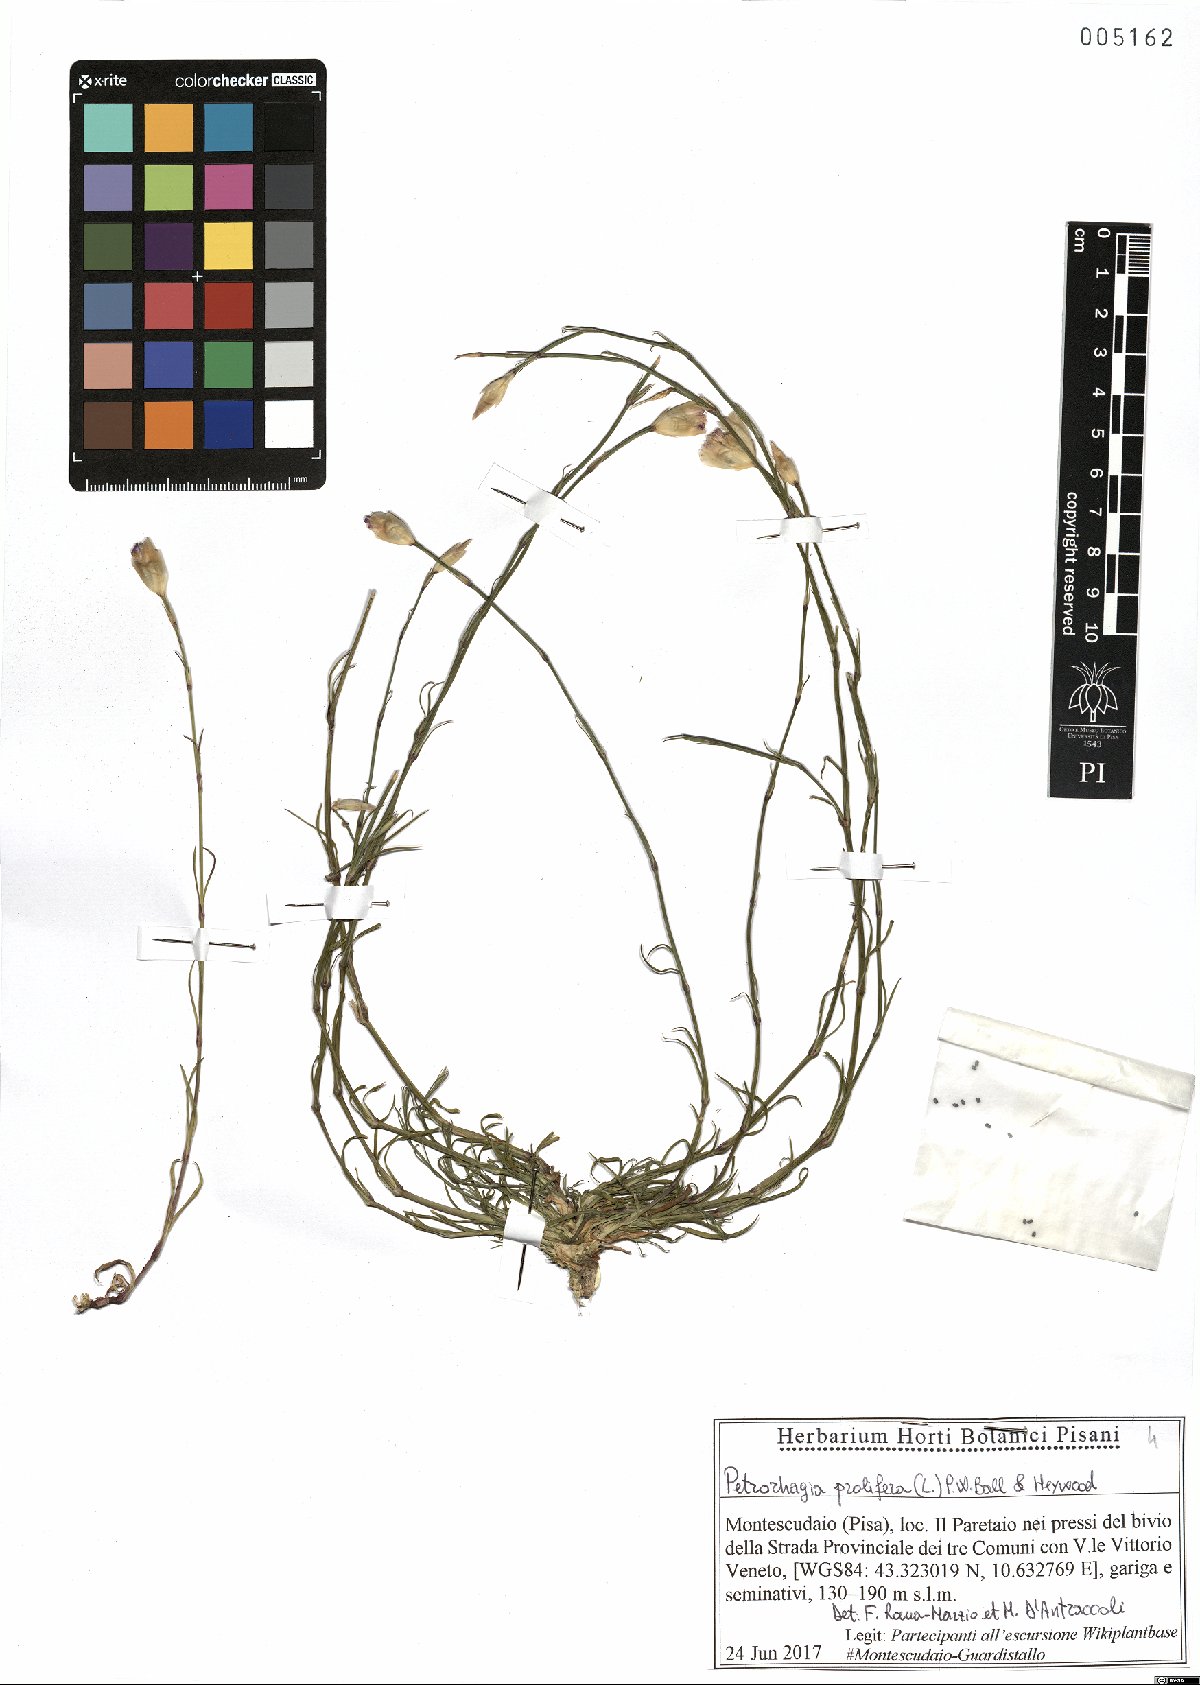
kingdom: Plantae
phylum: Tracheophyta
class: Magnoliopsida
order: Caryophyllales
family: Caryophyllaceae
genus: Petrorhagia
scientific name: Petrorhagia prolifera
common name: Proliferous pink
